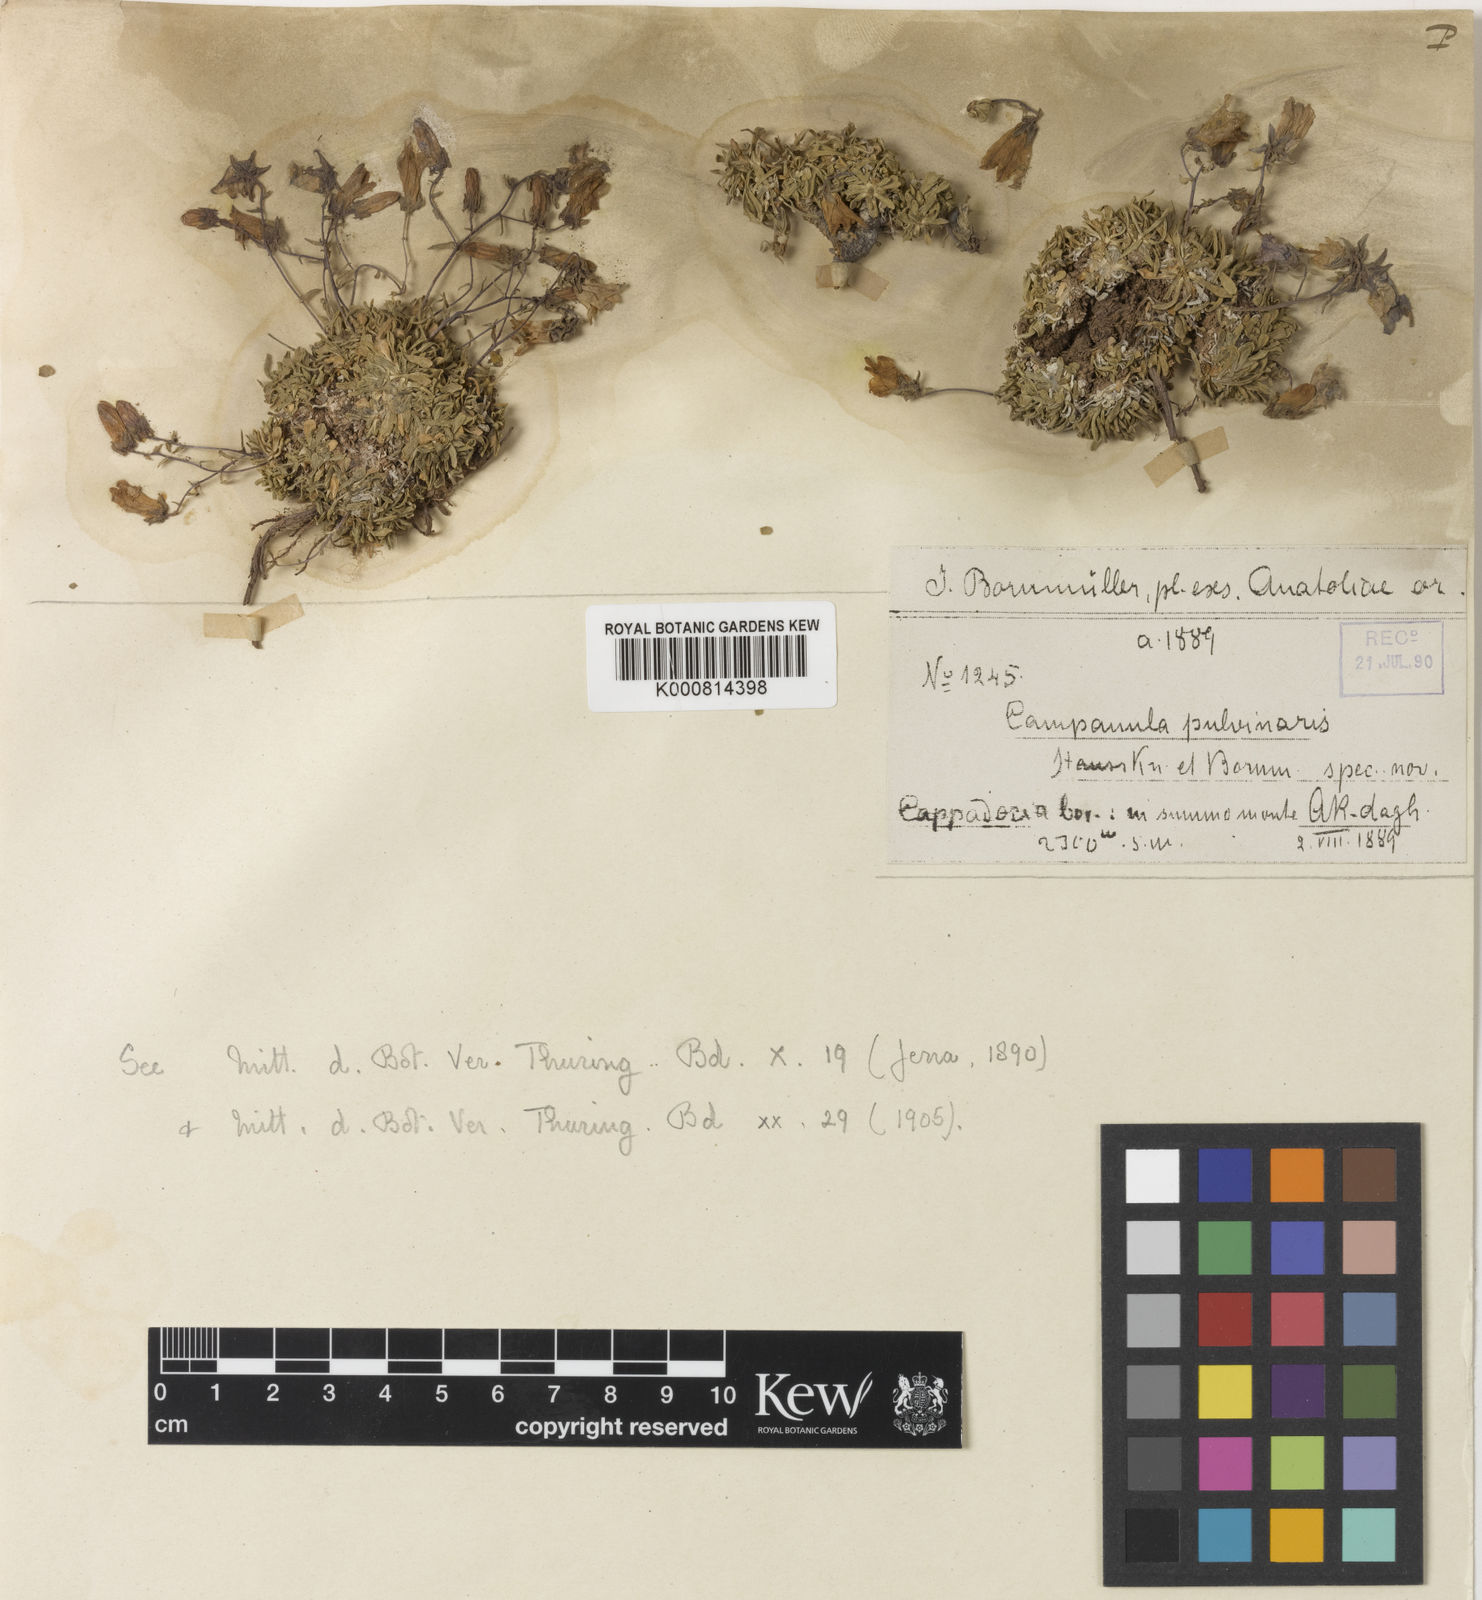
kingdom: Plantae
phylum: Tracheophyta
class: Magnoliopsida
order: Asterales
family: Campanulaceae
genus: Campanula
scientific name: Campanula pulvinaris
